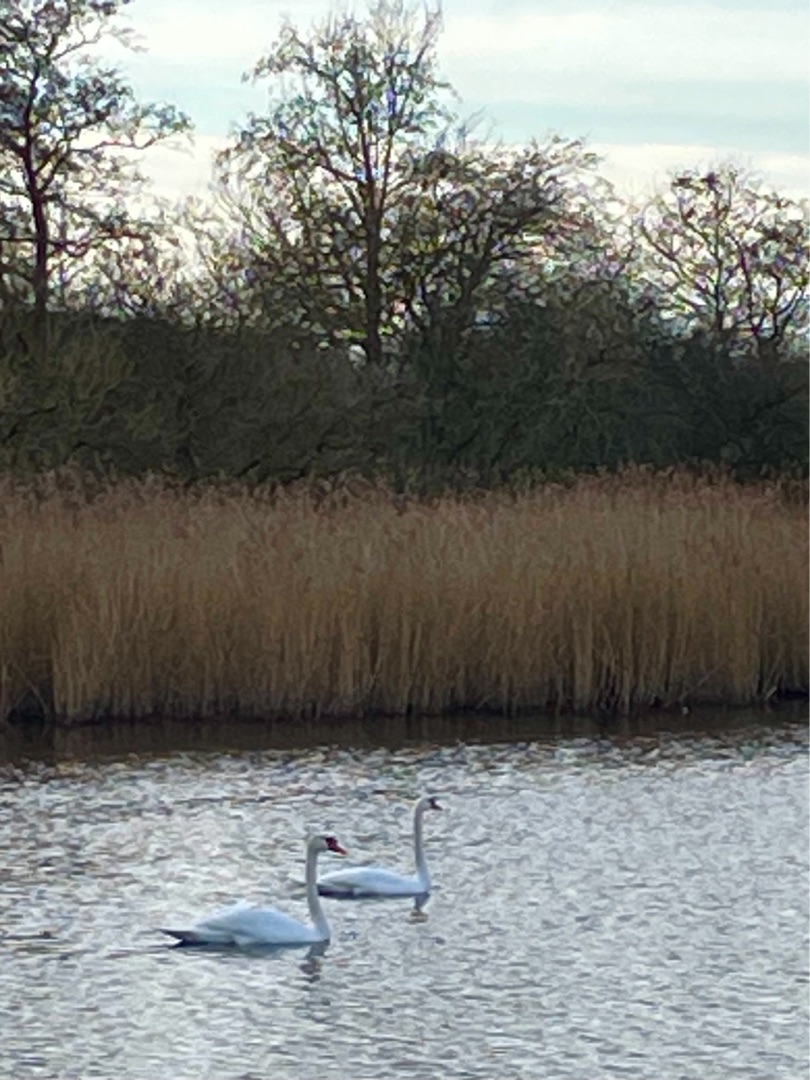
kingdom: Animalia
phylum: Chordata
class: Aves
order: Anseriformes
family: Anatidae
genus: Cygnus
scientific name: Cygnus olor
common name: Knopsvane
